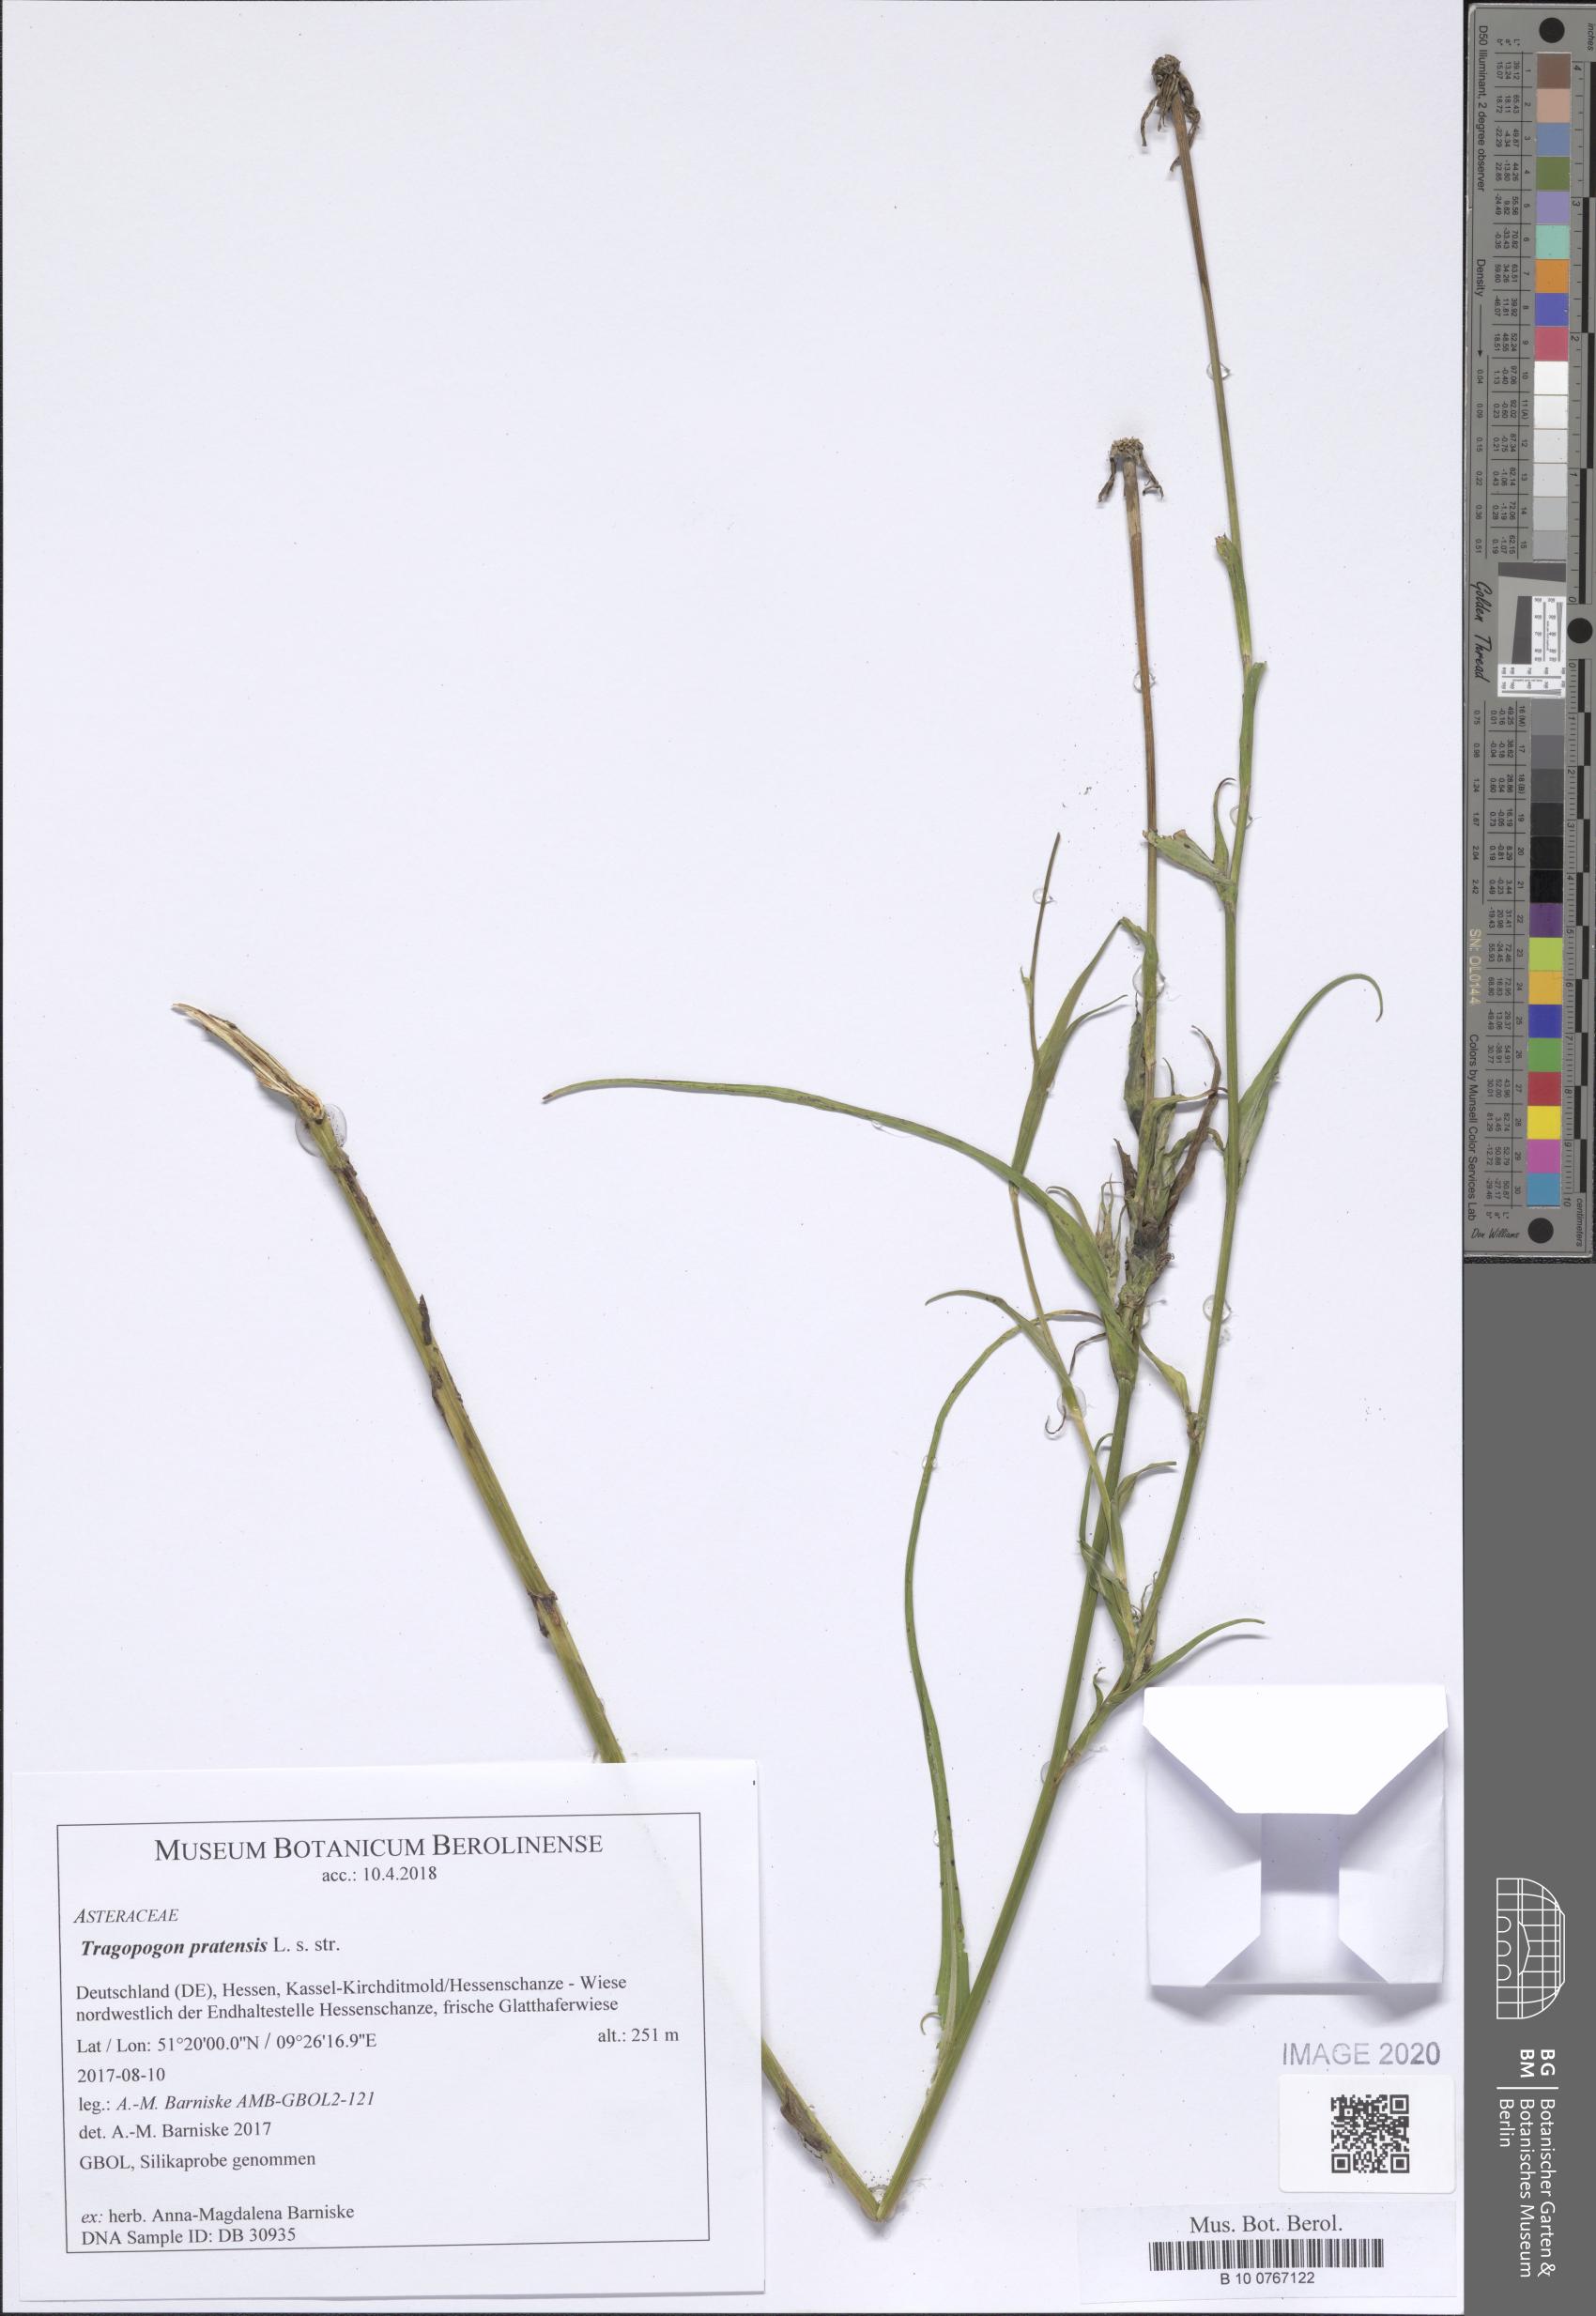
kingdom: Plantae
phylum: Tracheophyta
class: Magnoliopsida
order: Asterales
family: Asteraceae
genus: Tragopogon
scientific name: Tragopogon pratensis
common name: Goat's-beard
